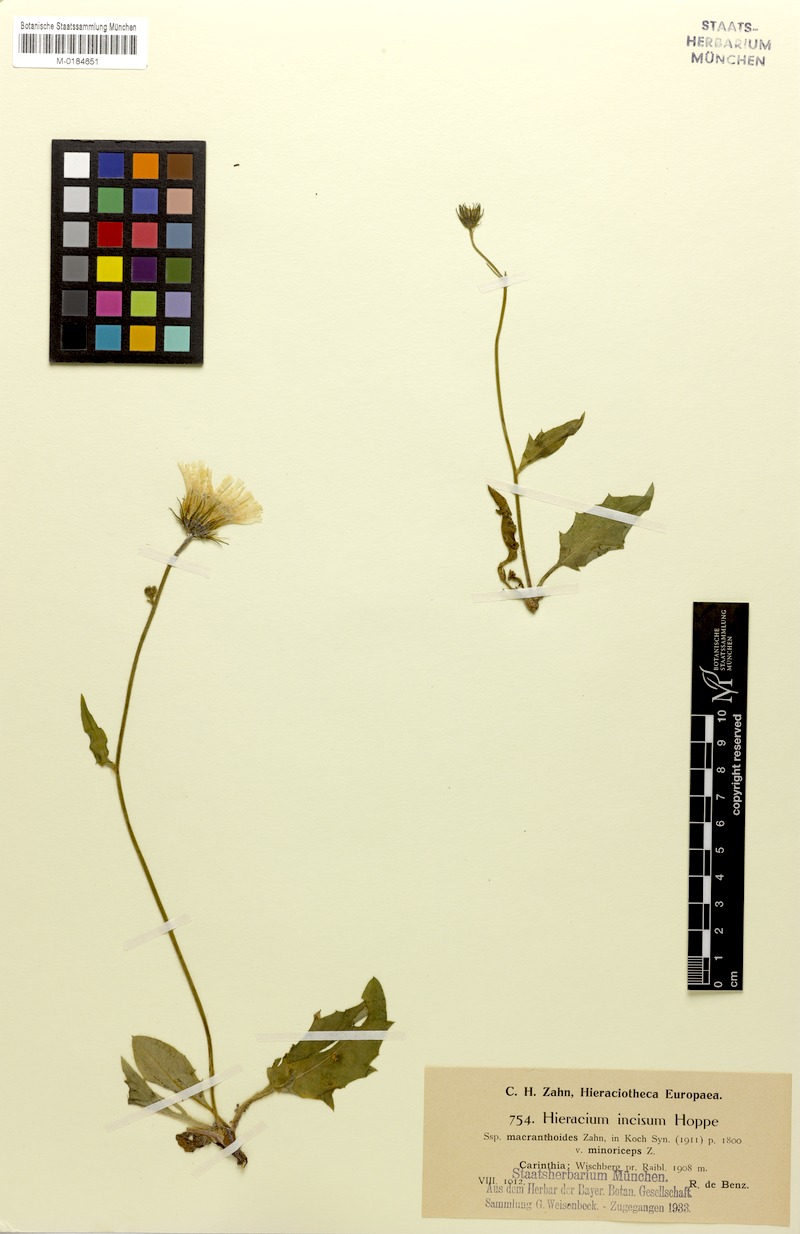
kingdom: Plantae
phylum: Tracheophyta
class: Magnoliopsida
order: Asterales
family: Asteraceae
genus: Hieracium
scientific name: Hieracium pallescens
